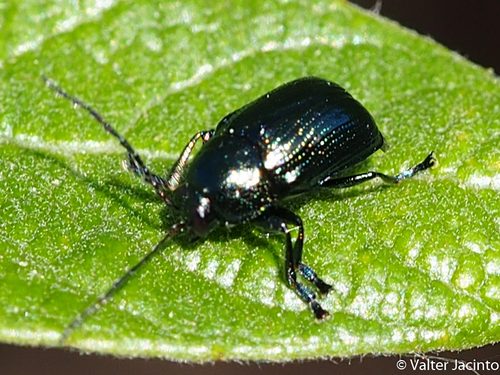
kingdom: Animalia
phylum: Arthropoda
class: Insecta
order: Coleoptera
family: Chrysomelidae
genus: Cryptocephalus
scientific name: Cryptocephalus
